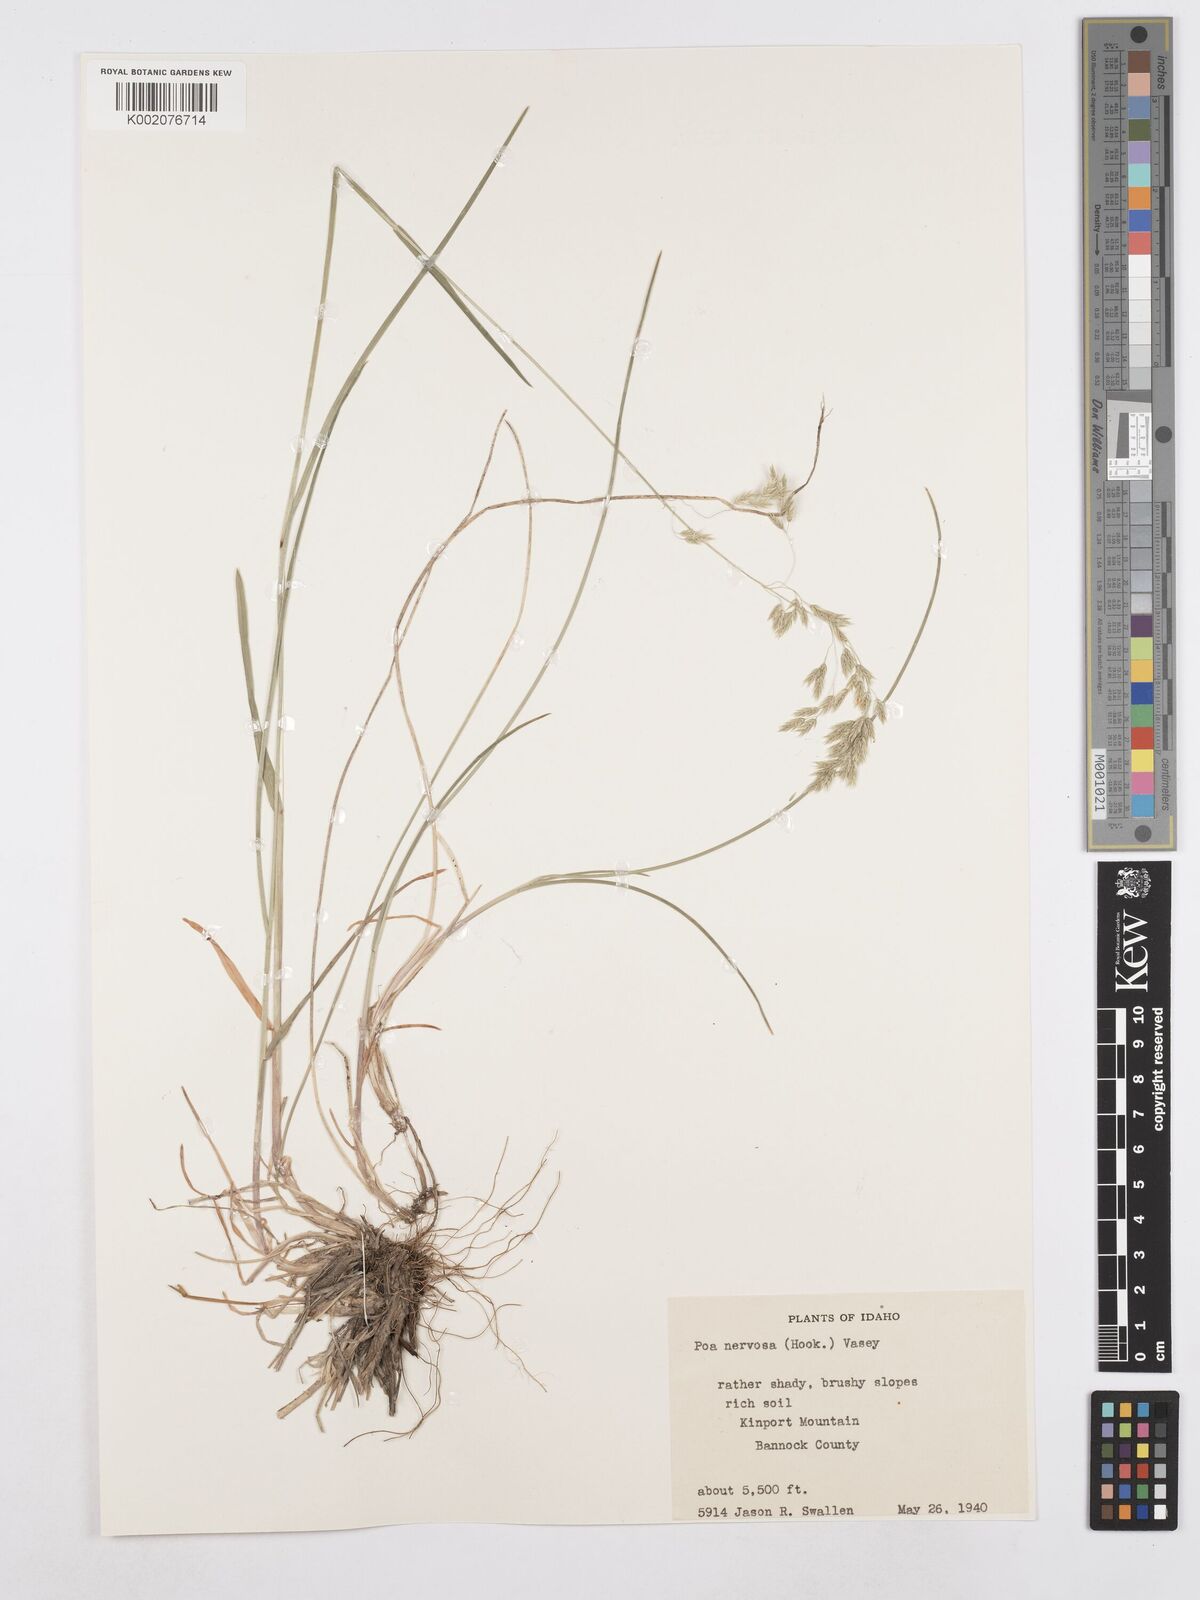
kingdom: Plantae
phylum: Tracheophyta
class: Liliopsida
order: Poales
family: Poaceae
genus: Poa
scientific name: Poa nervosa
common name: Hooker's bluegrass
